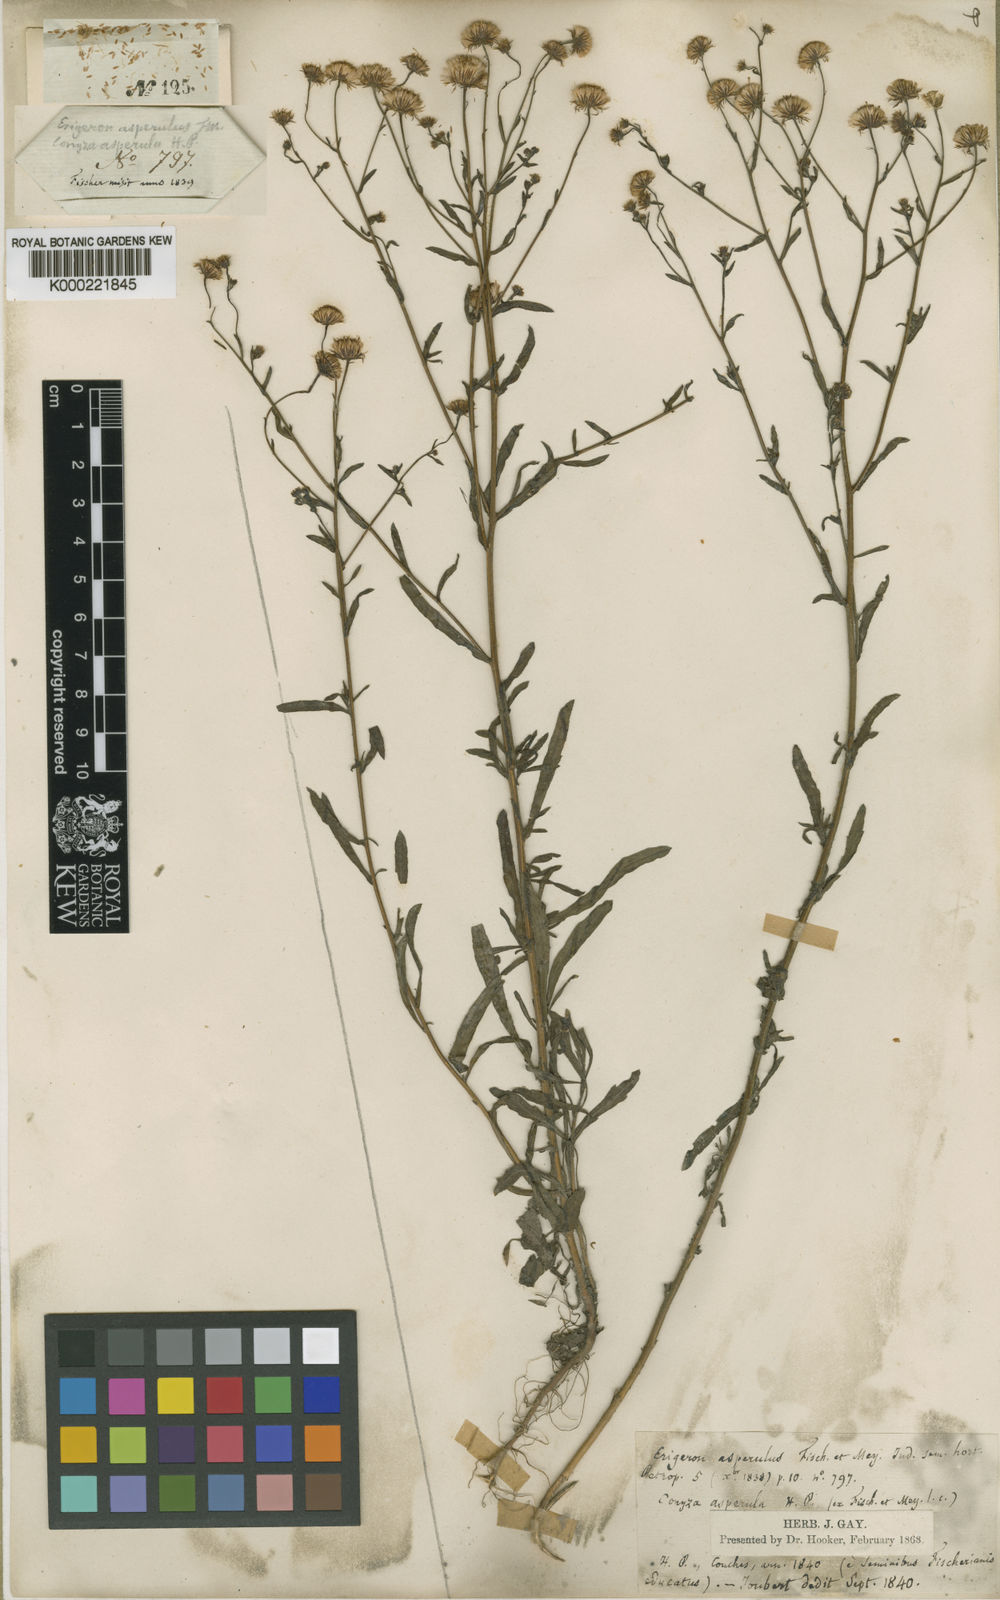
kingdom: Plantae
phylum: Tracheophyta
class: Magnoliopsida
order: Asterales
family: Asteraceae
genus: Erigeron
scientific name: Erigeron spiculosus
